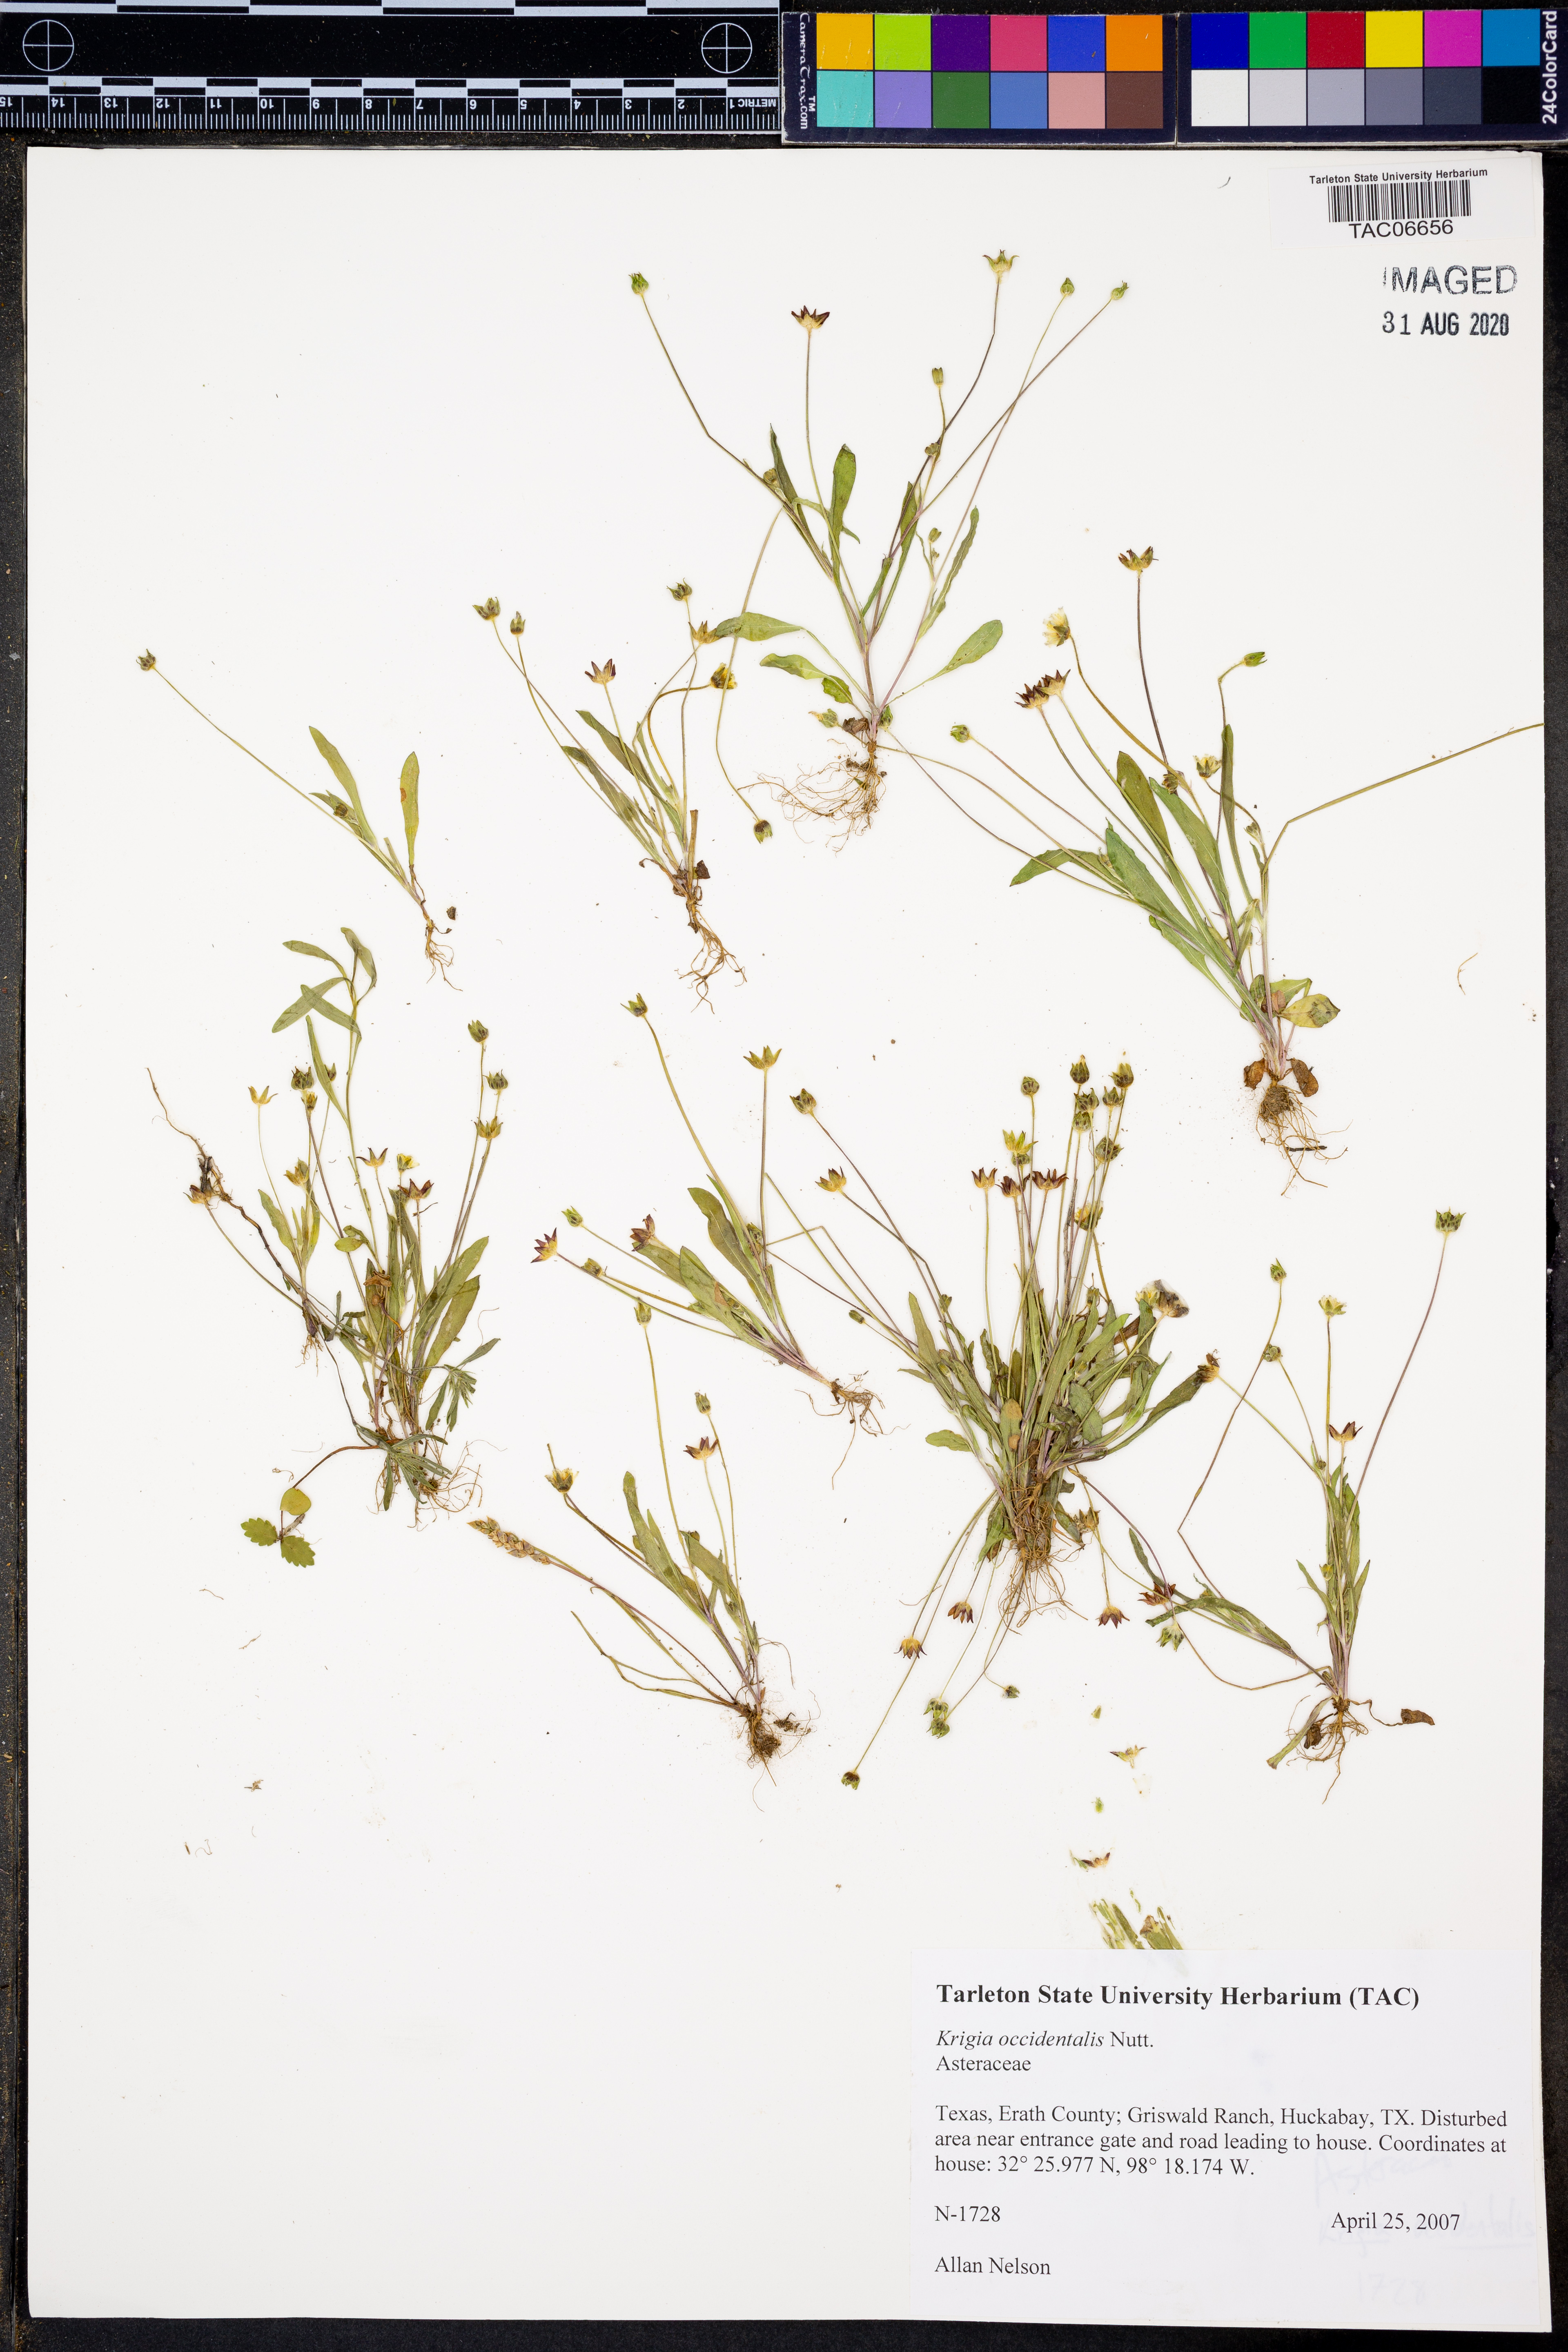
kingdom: Plantae
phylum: Tracheophyta
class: Magnoliopsida
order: Asterales
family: Asteraceae
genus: Krigia
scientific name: Krigia occidentalis
